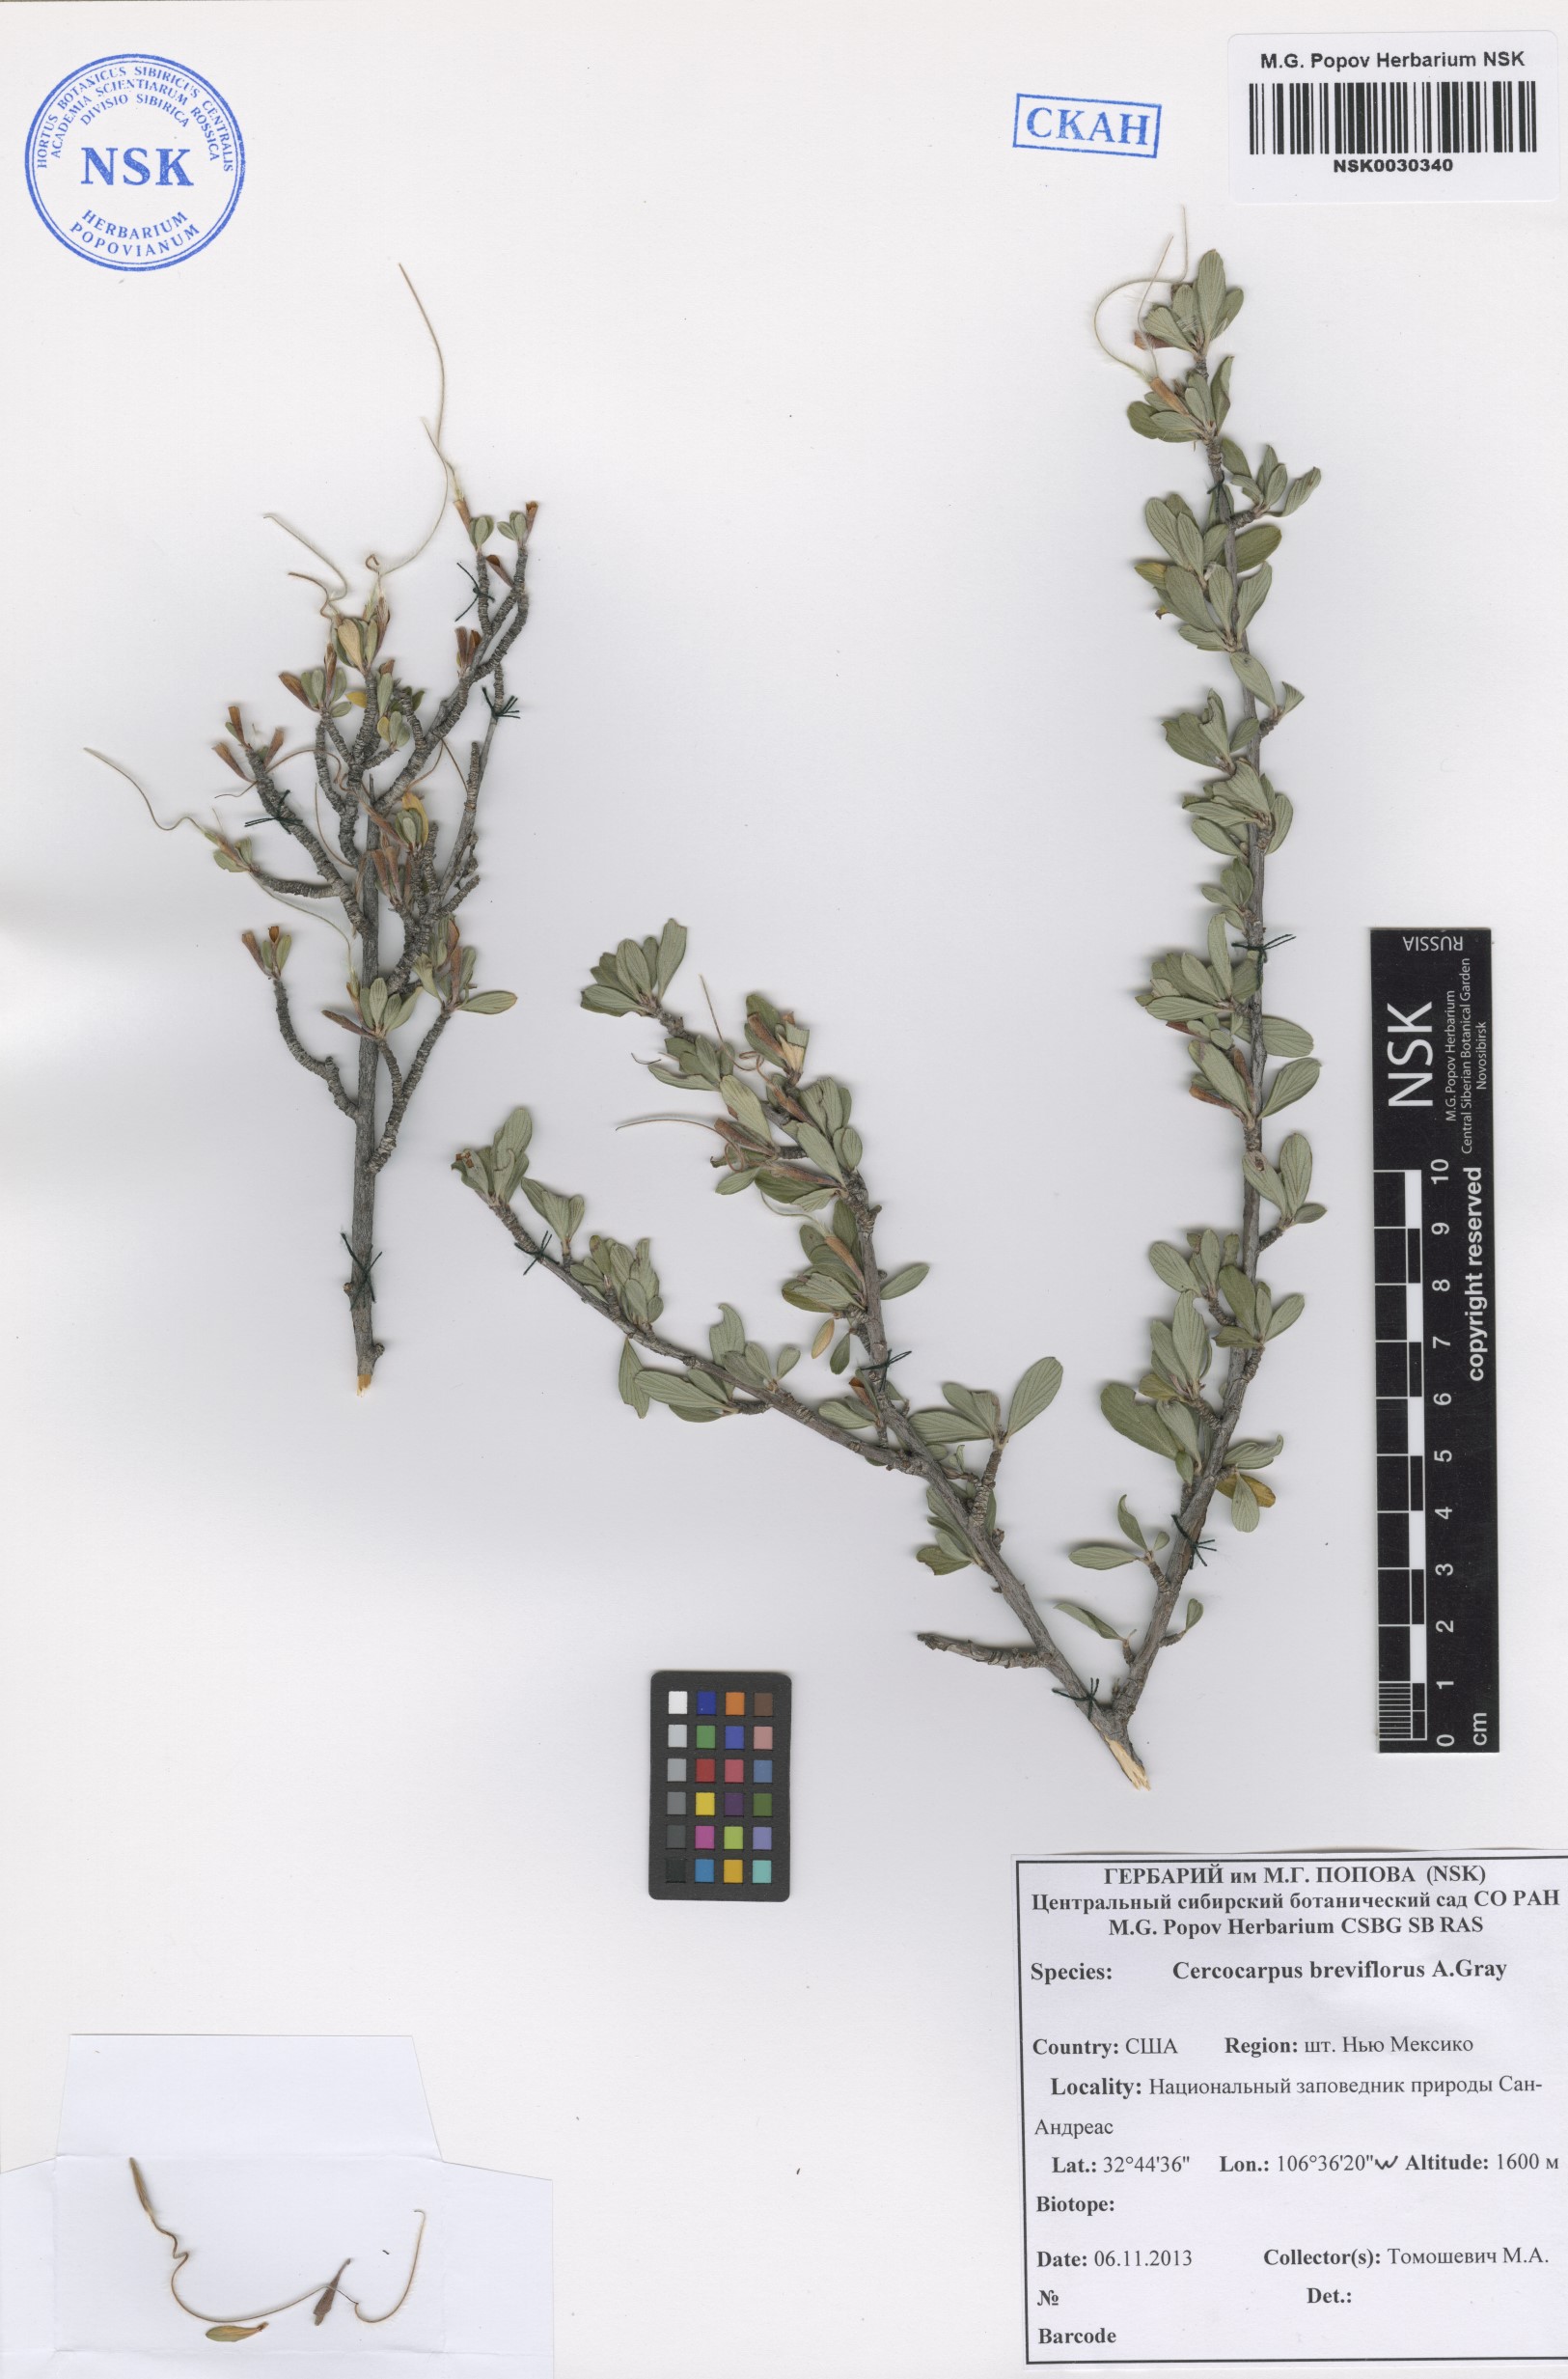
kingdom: Plantae
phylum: Tracheophyta
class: Magnoliopsida
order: Rosales
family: Rosaceae
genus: Cercocarpus
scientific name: Cercocarpus breviflorus
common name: Wright's mountain-mahogany
